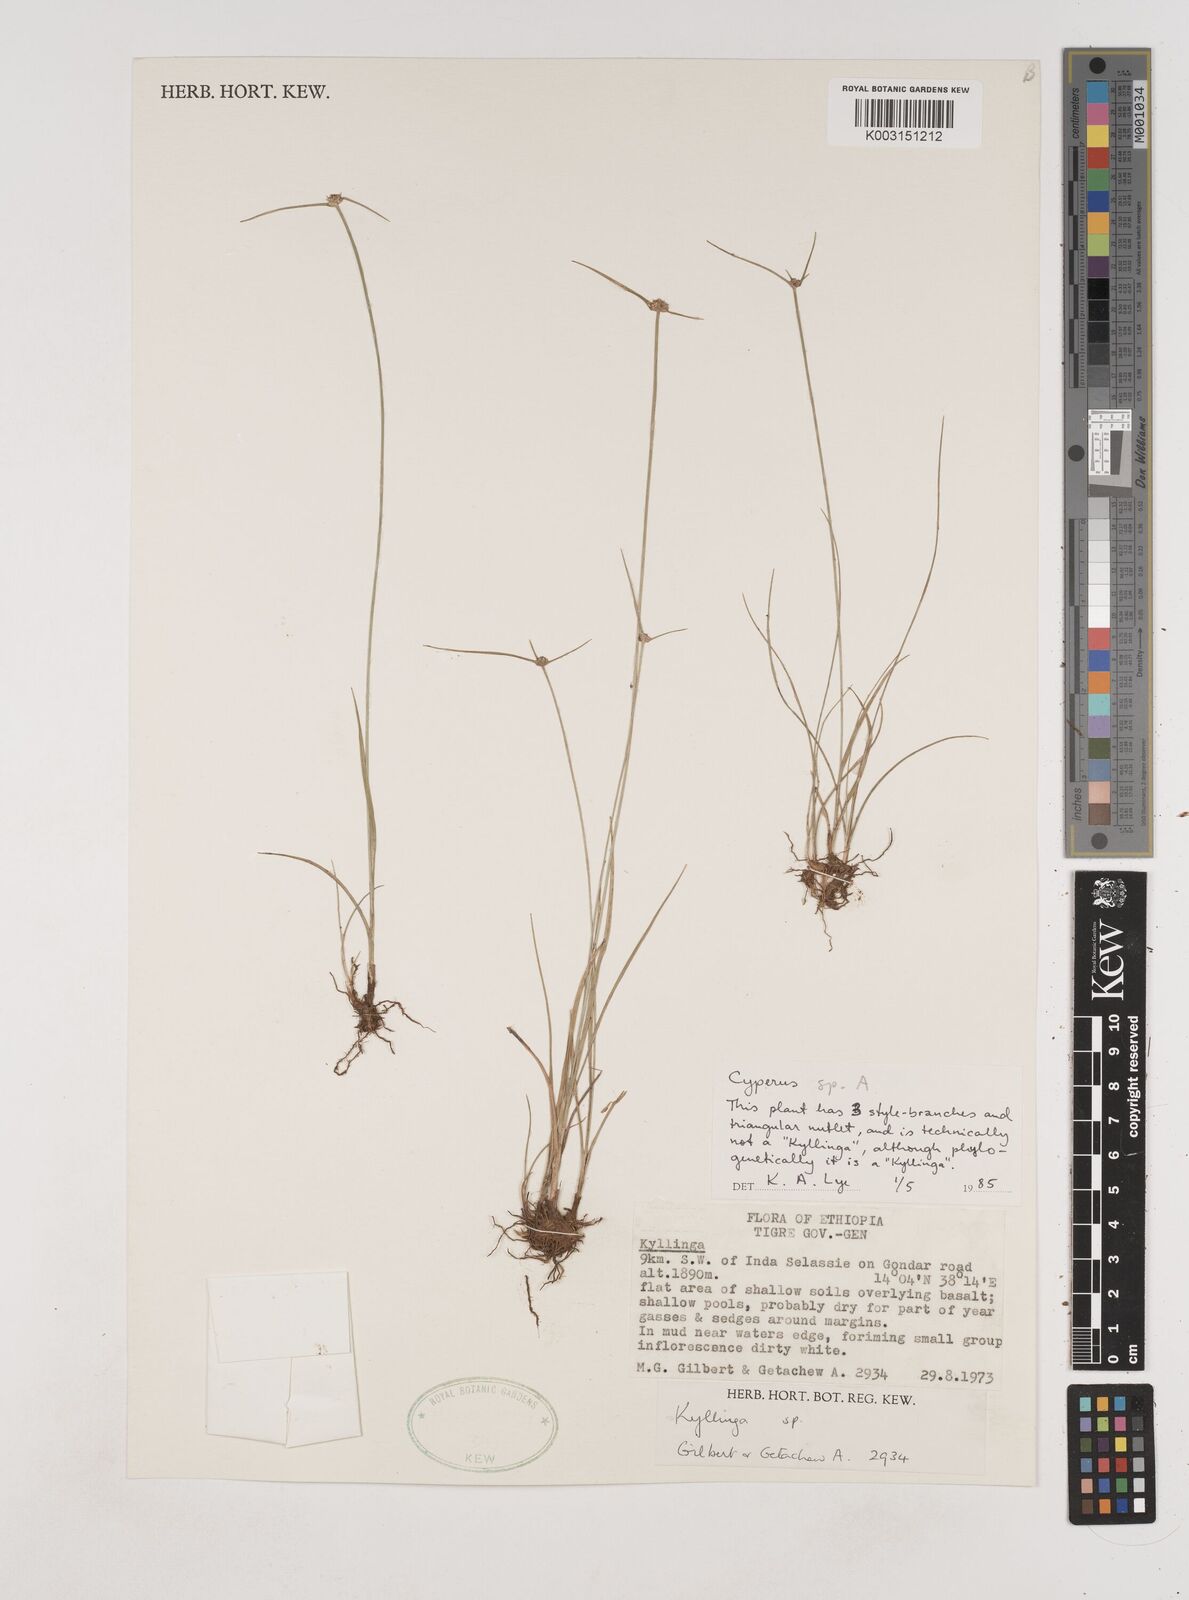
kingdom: Plantae
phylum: Tracheophyta
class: Liliopsida
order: Poales
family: Cyperaceae
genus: Cyperus
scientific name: Cyperus
